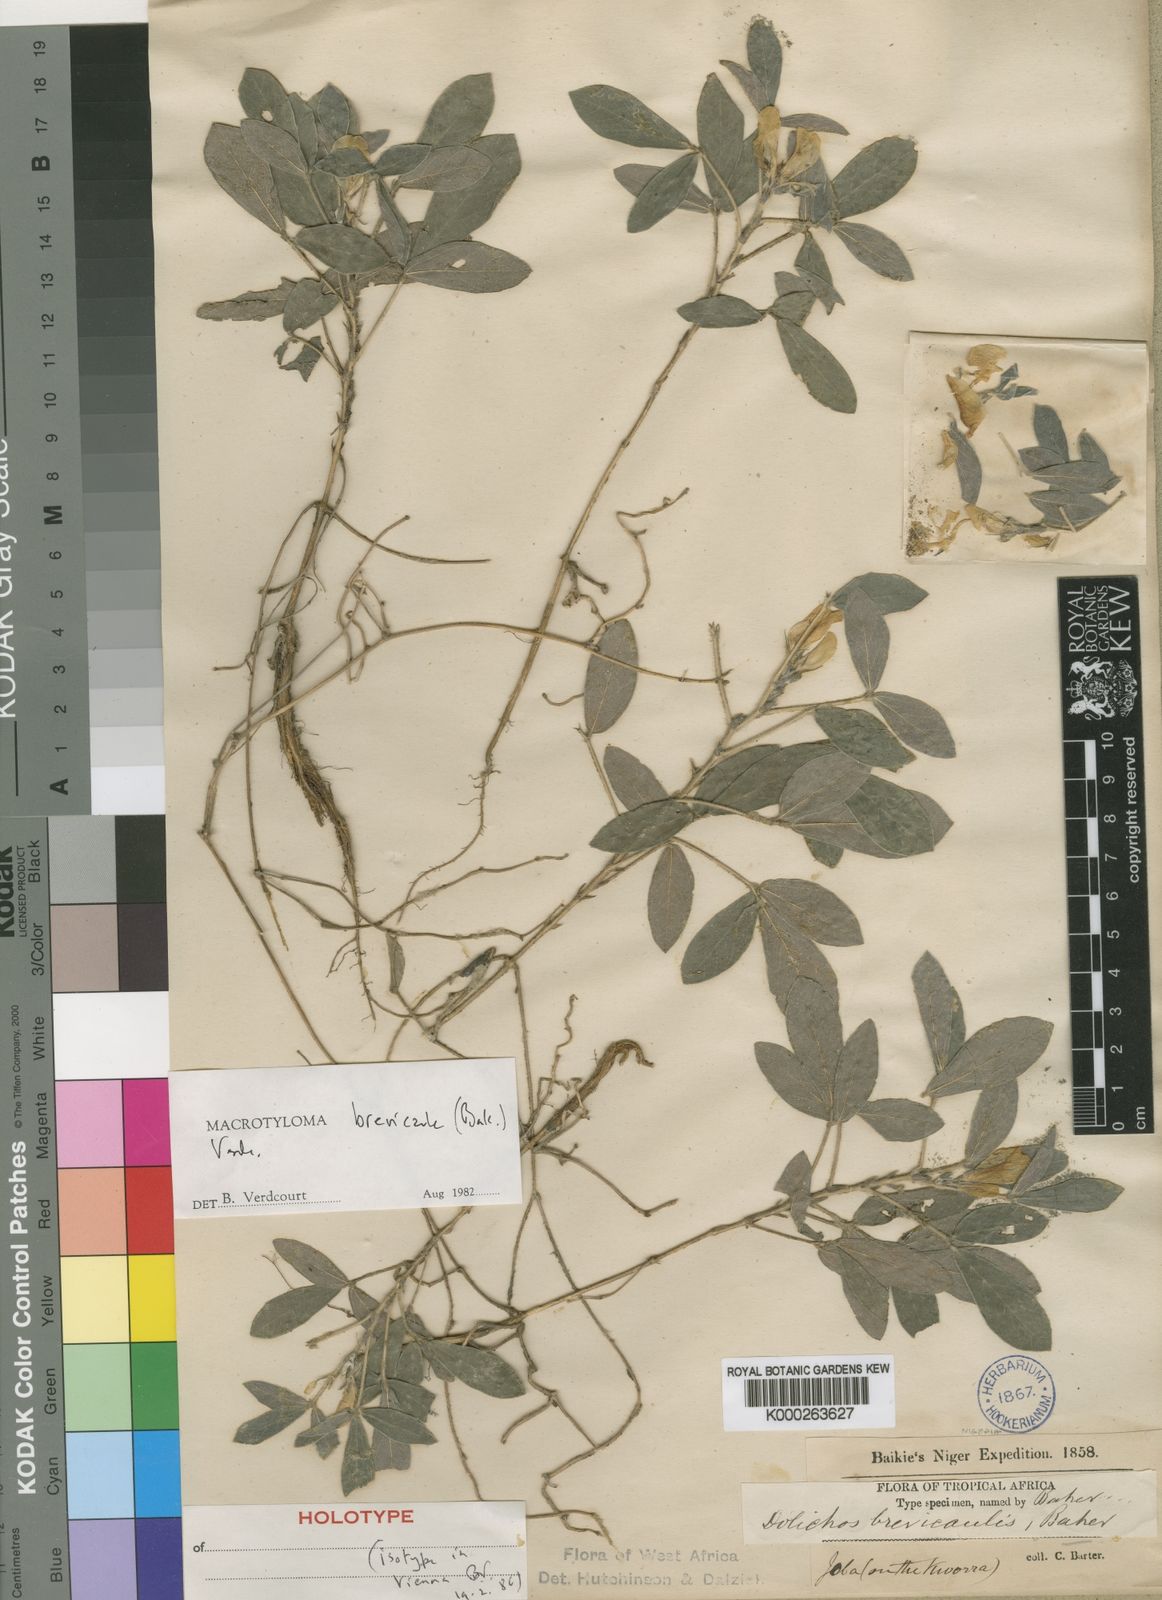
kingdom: Plantae
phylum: Tracheophyta
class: Magnoliopsida
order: Fabales
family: Fabaceae
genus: Macrotyloma
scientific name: Macrotyloma
